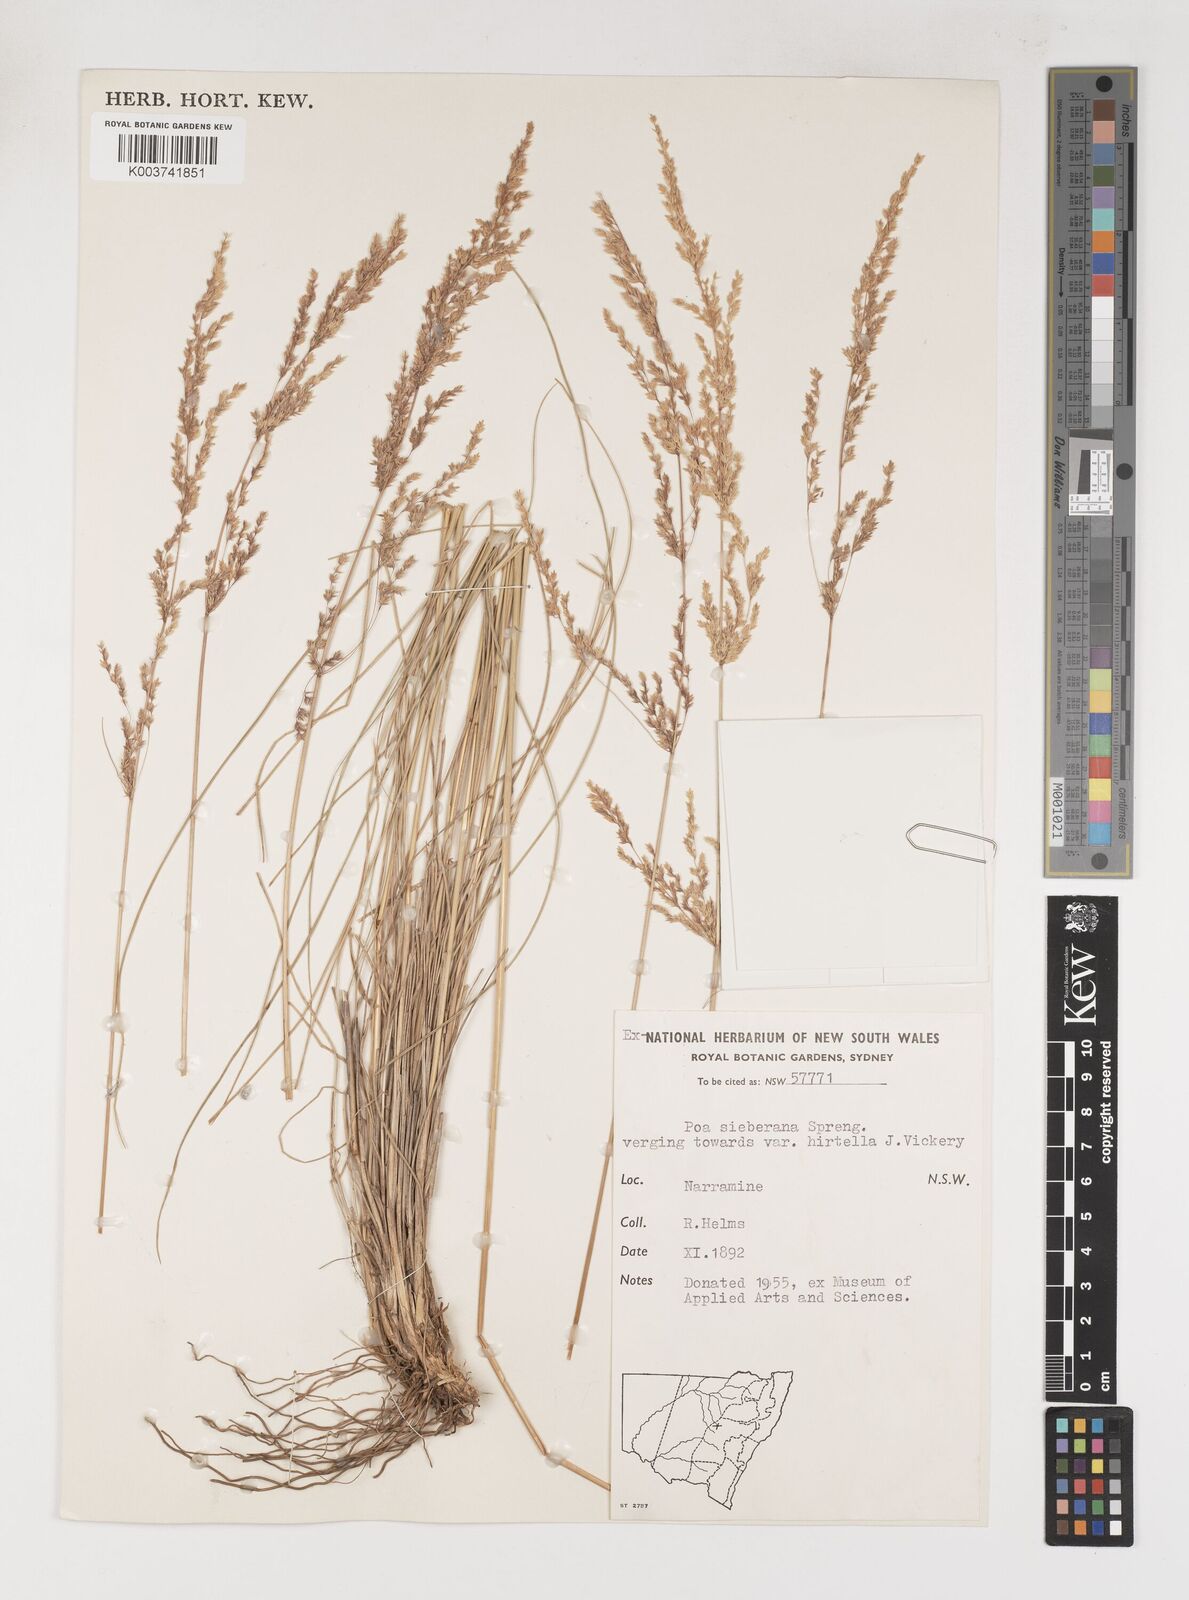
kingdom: Plantae
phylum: Tracheophyta
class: Liliopsida
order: Poales
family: Poaceae
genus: Poa
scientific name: Poa sieberiana
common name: Tussock poa
